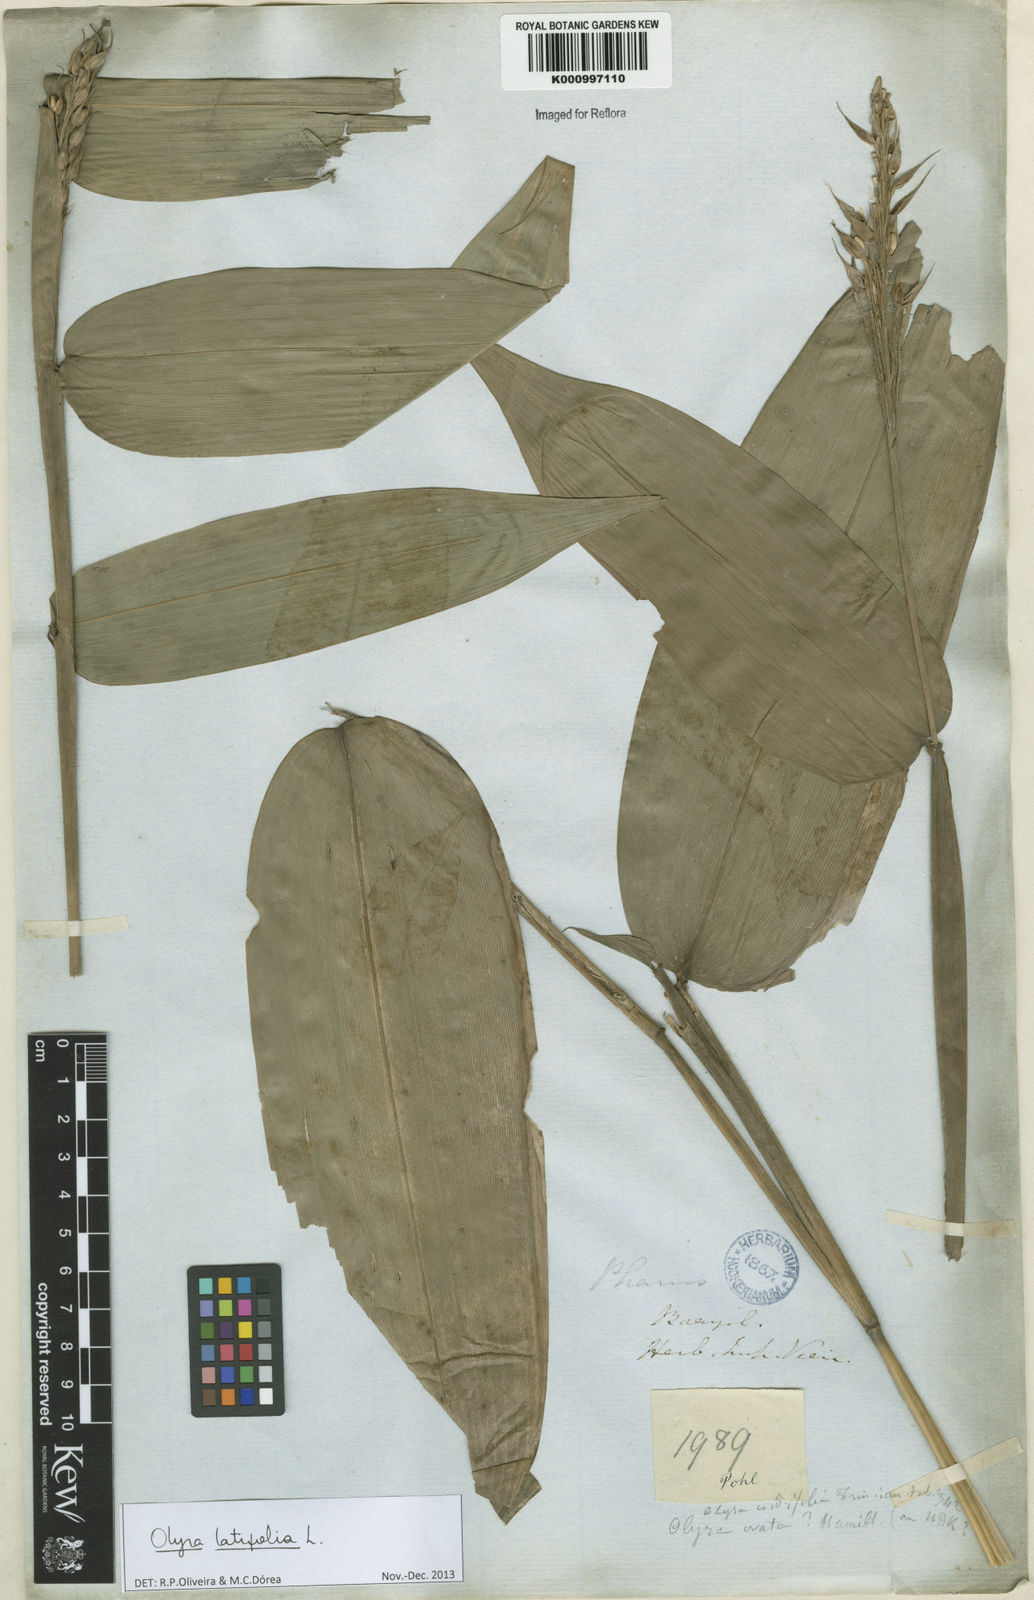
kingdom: Plantae
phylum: Tracheophyta
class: Liliopsida
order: Poales
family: Poaceae
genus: Olyra
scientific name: Olyra latifolia
